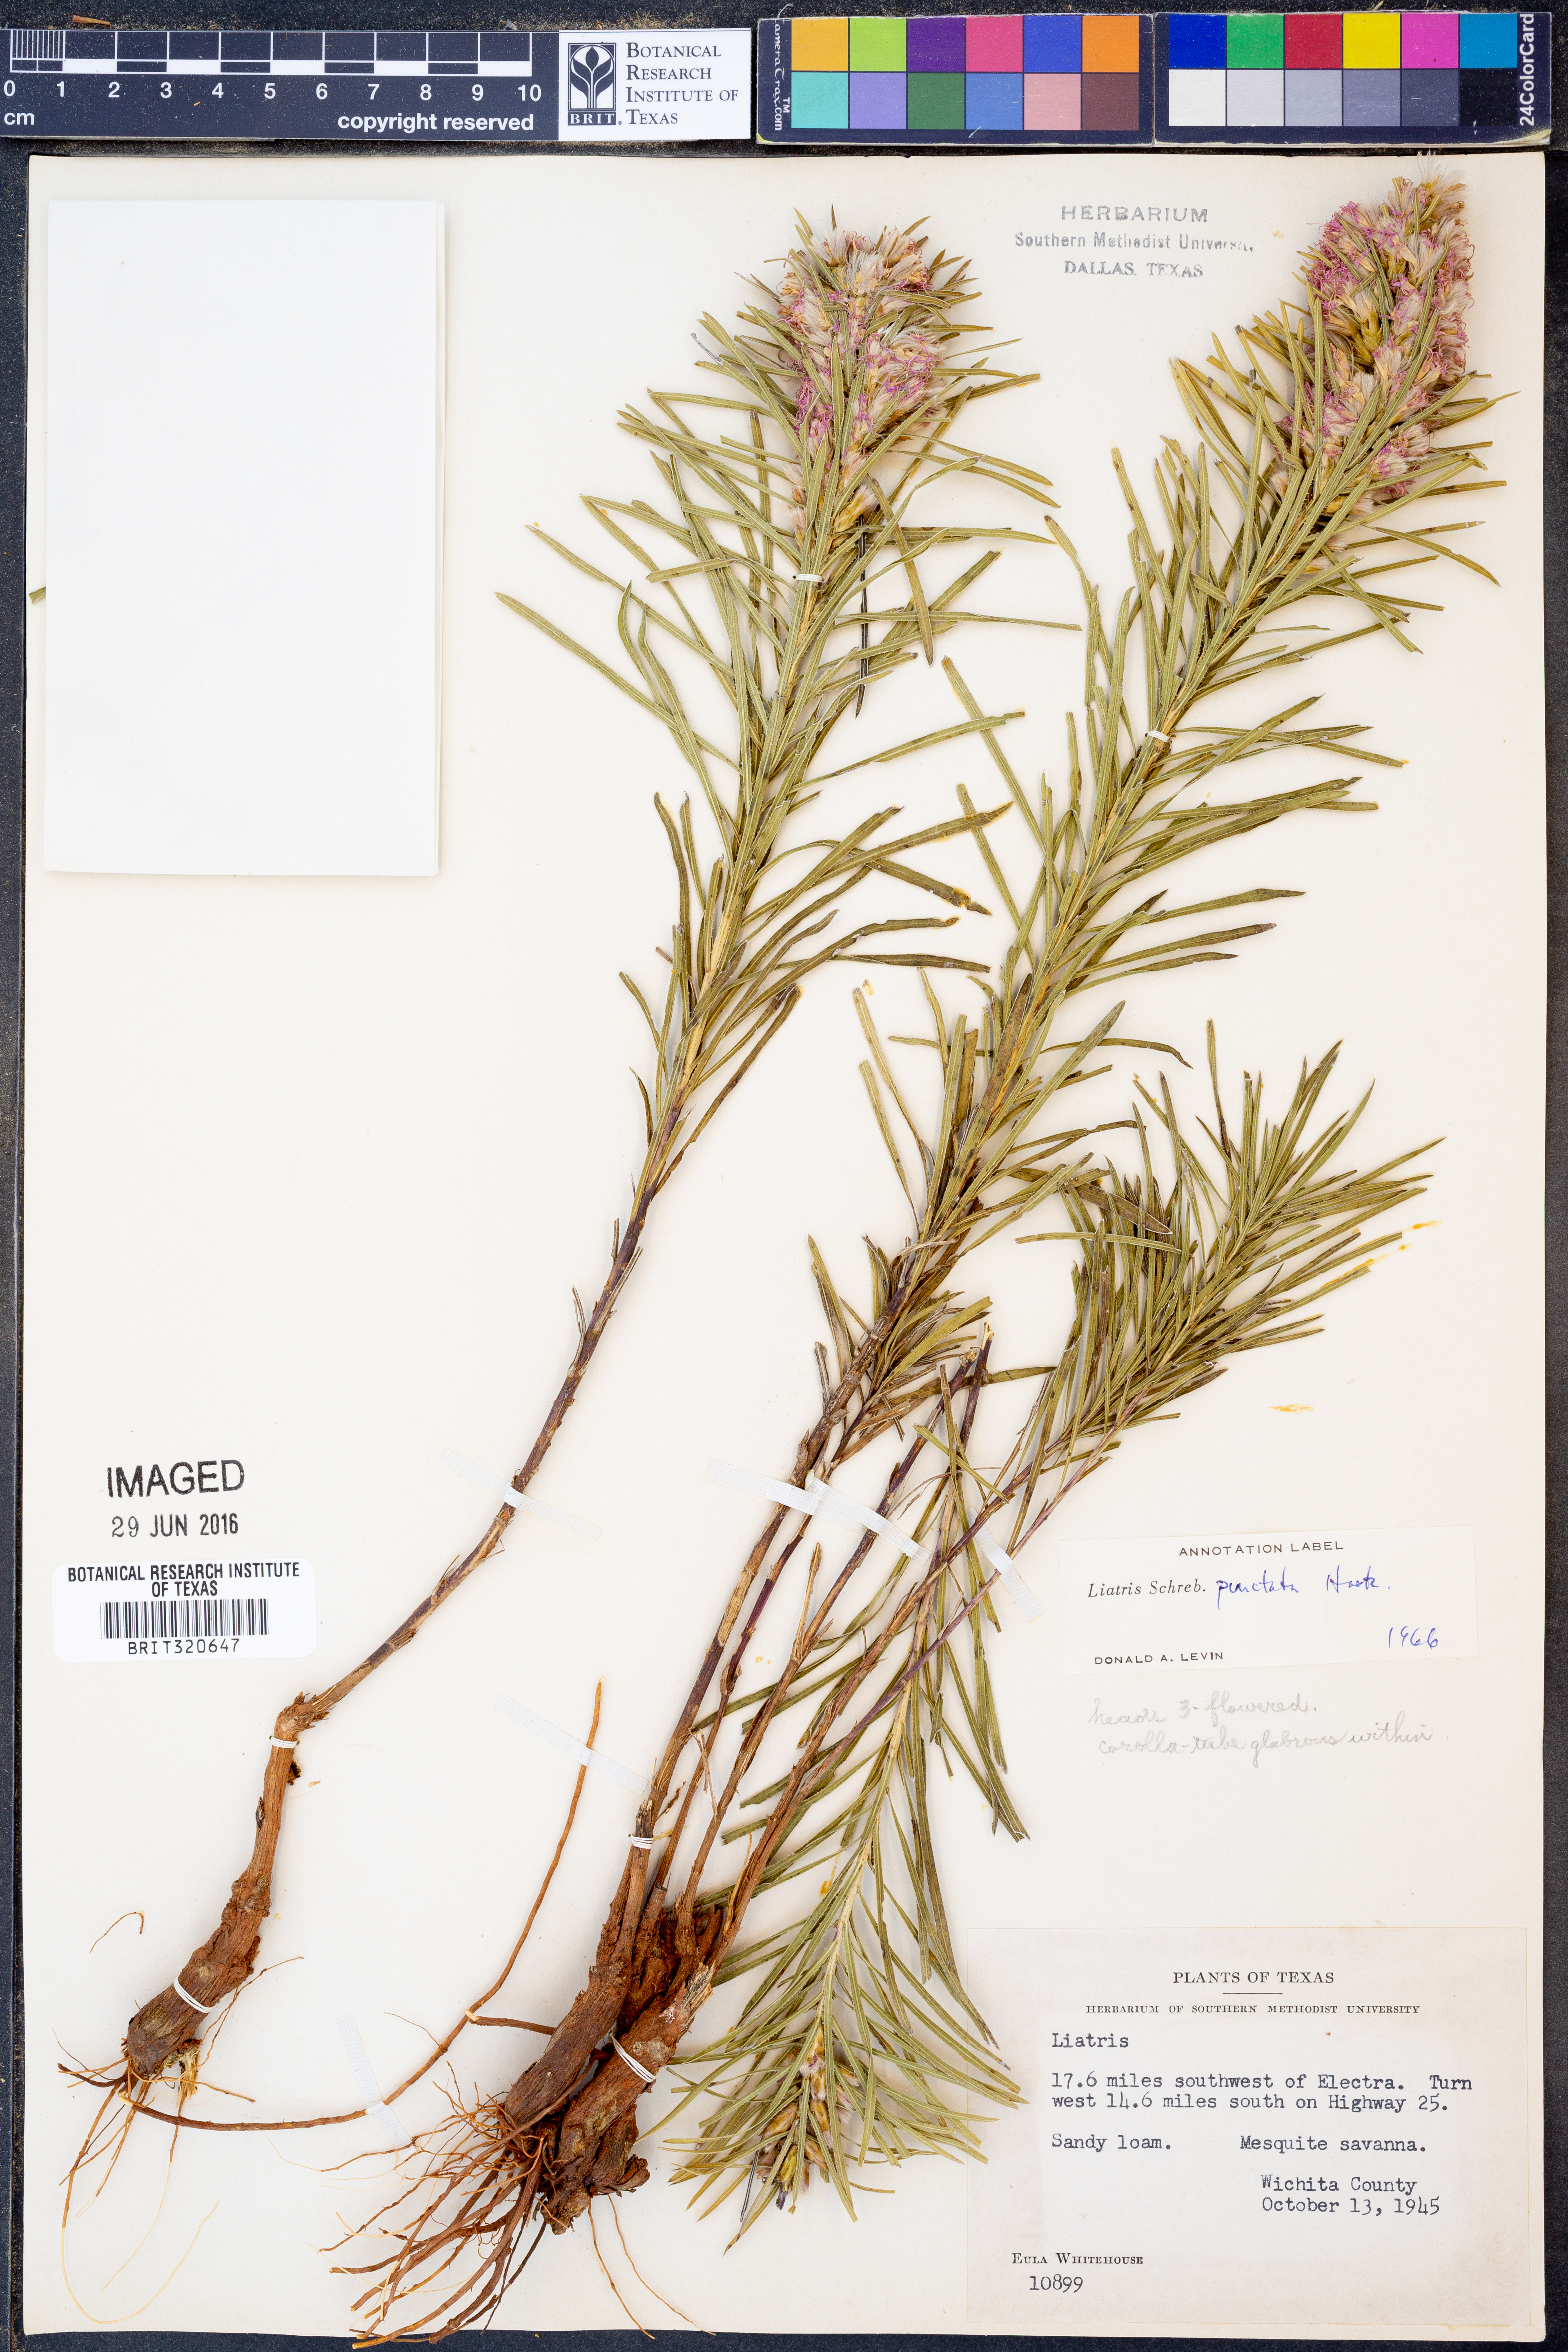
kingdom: Plantae
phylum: Tracheophyta
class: Magnoliopsida
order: Asterales
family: Asteraceae
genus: Liatris
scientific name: Liatris punctata
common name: Dotted gayfeather
